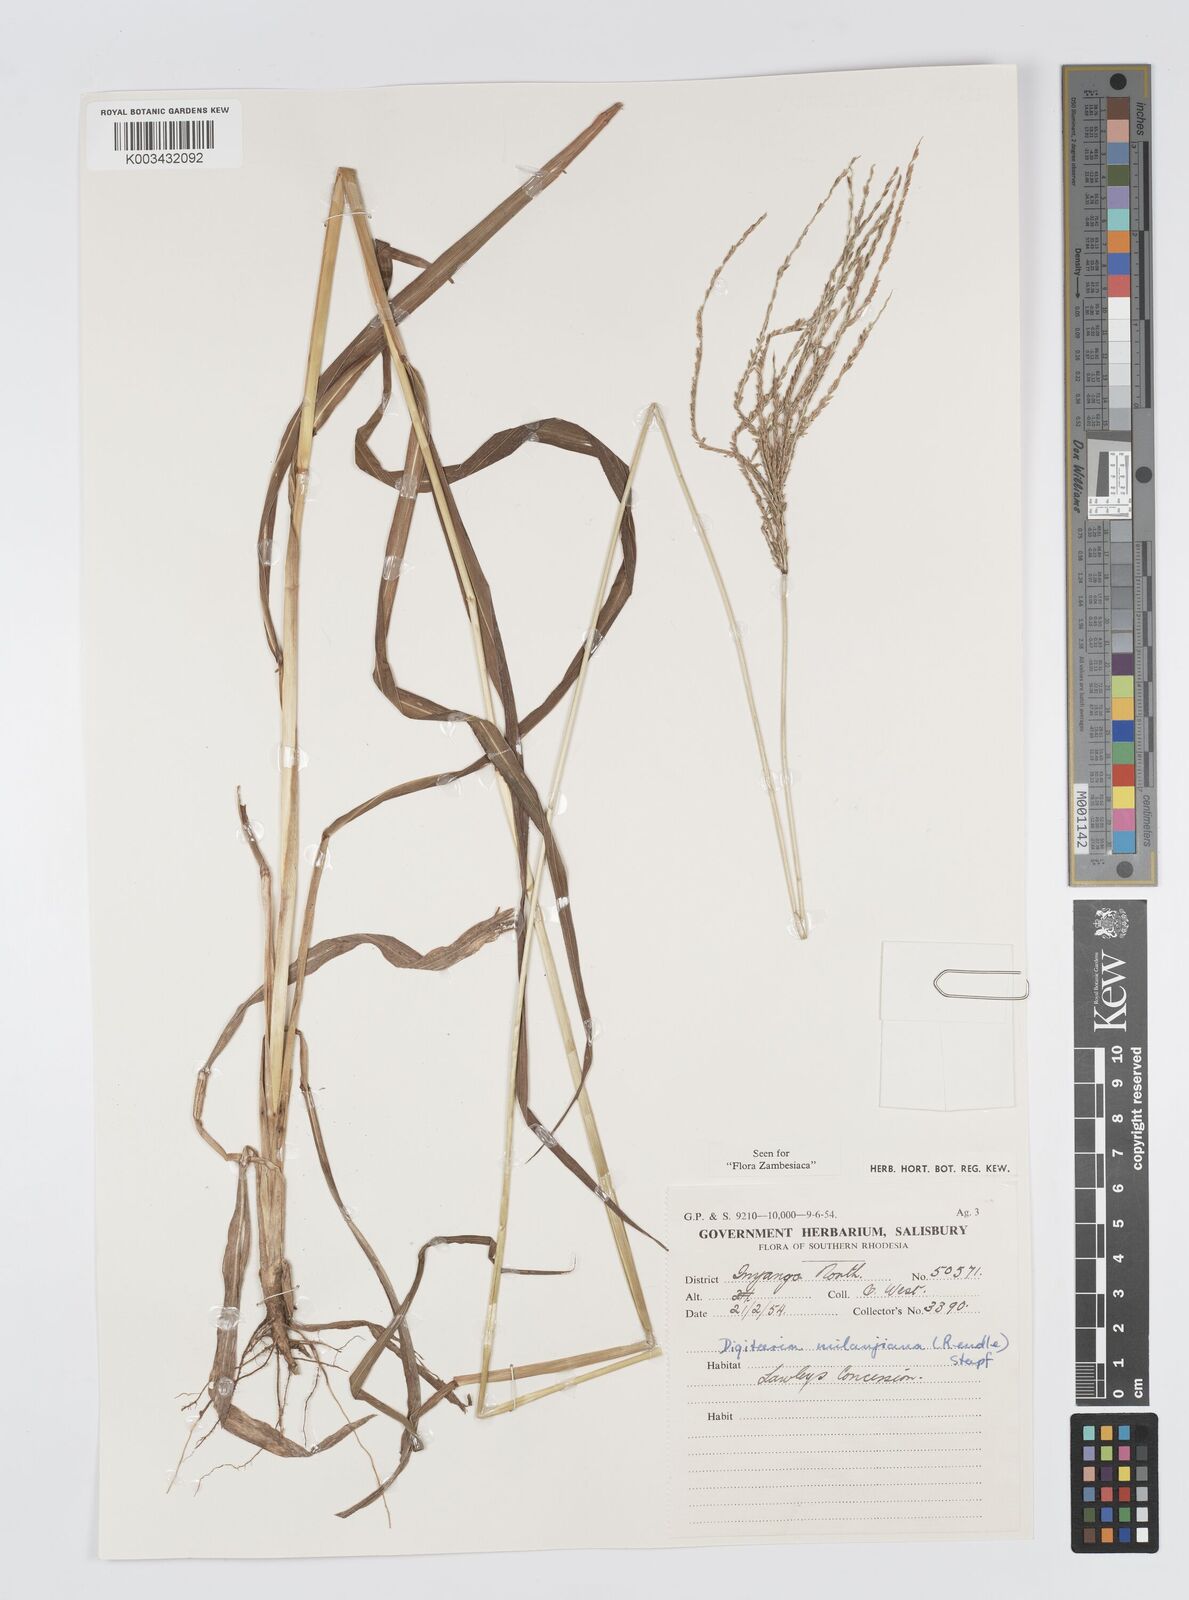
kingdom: Plantae
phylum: Tracheophyta
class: Liliopsida
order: Poales
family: Poaceae
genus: Digitaria
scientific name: Digitaria milanjiana
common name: Madagascar crabgrass
